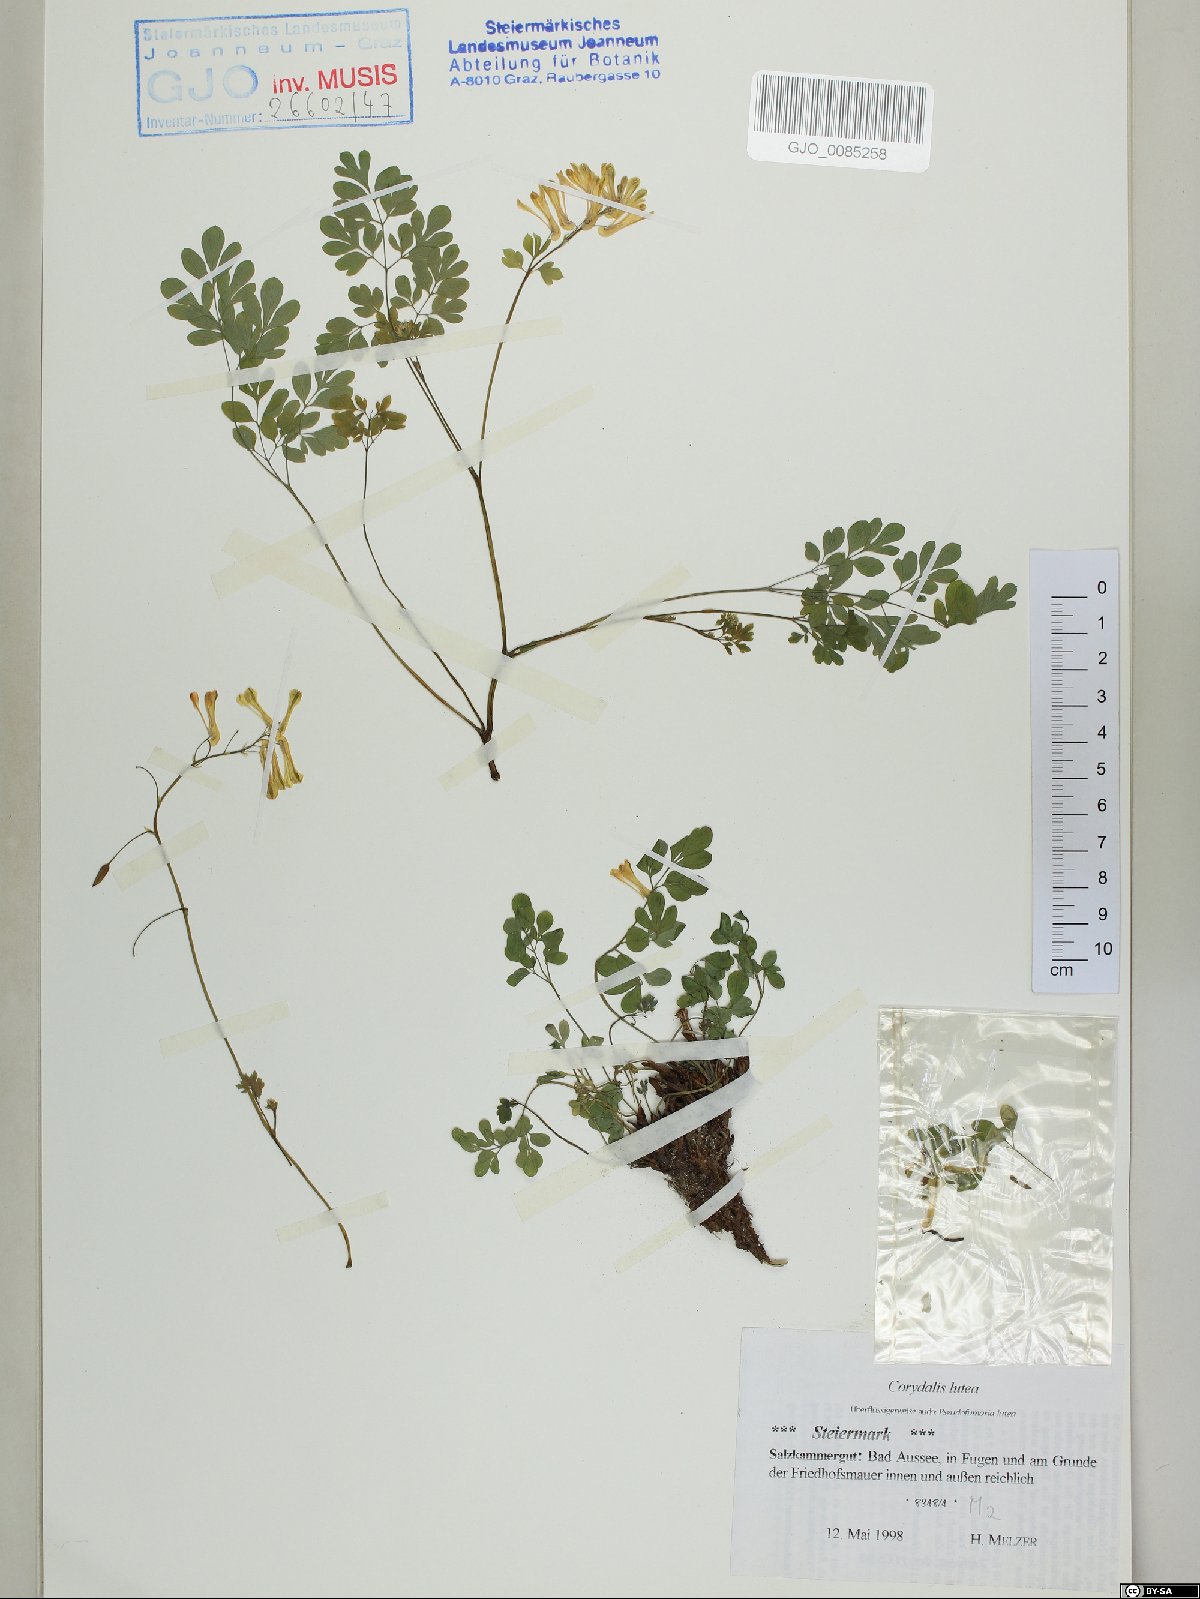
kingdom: Plantae
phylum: Tracheophyta
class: Magnoliopsida
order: Ranunculales
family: Papaveraceae
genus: Pseudofumaria
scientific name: Pseudofumaria lutea
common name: Yellow corydalis
